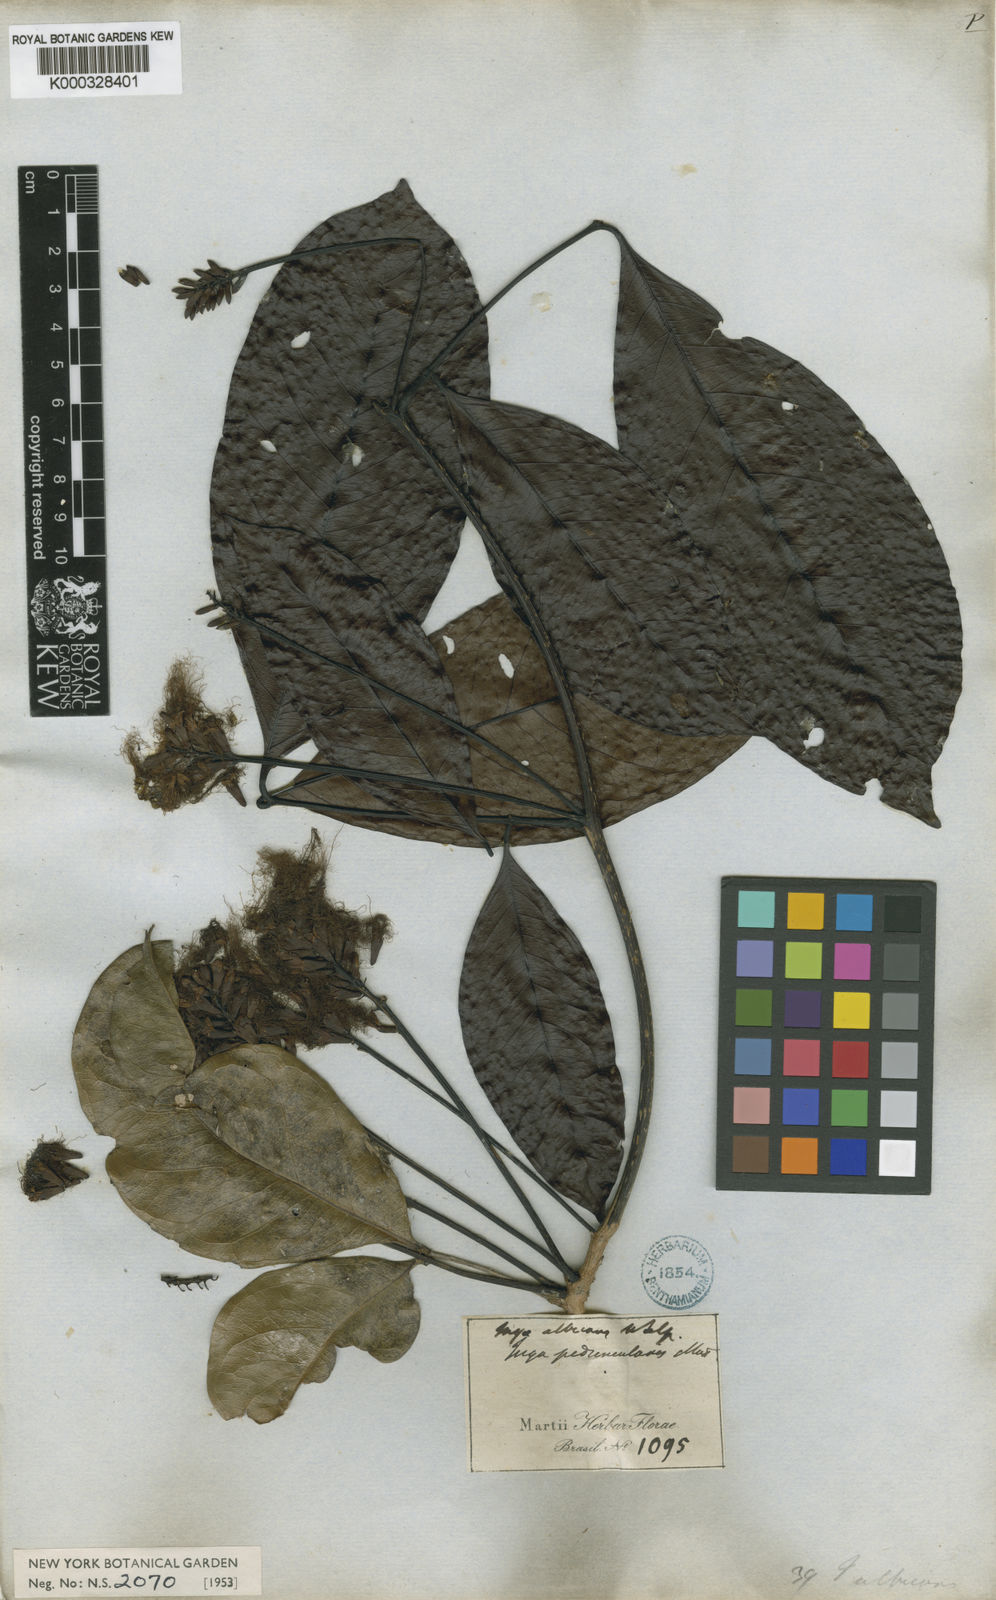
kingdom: Plantae
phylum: Tracheophyta
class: Magnoliopsida
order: Fabales
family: Fabaceae
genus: Inga
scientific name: Inga capitata
